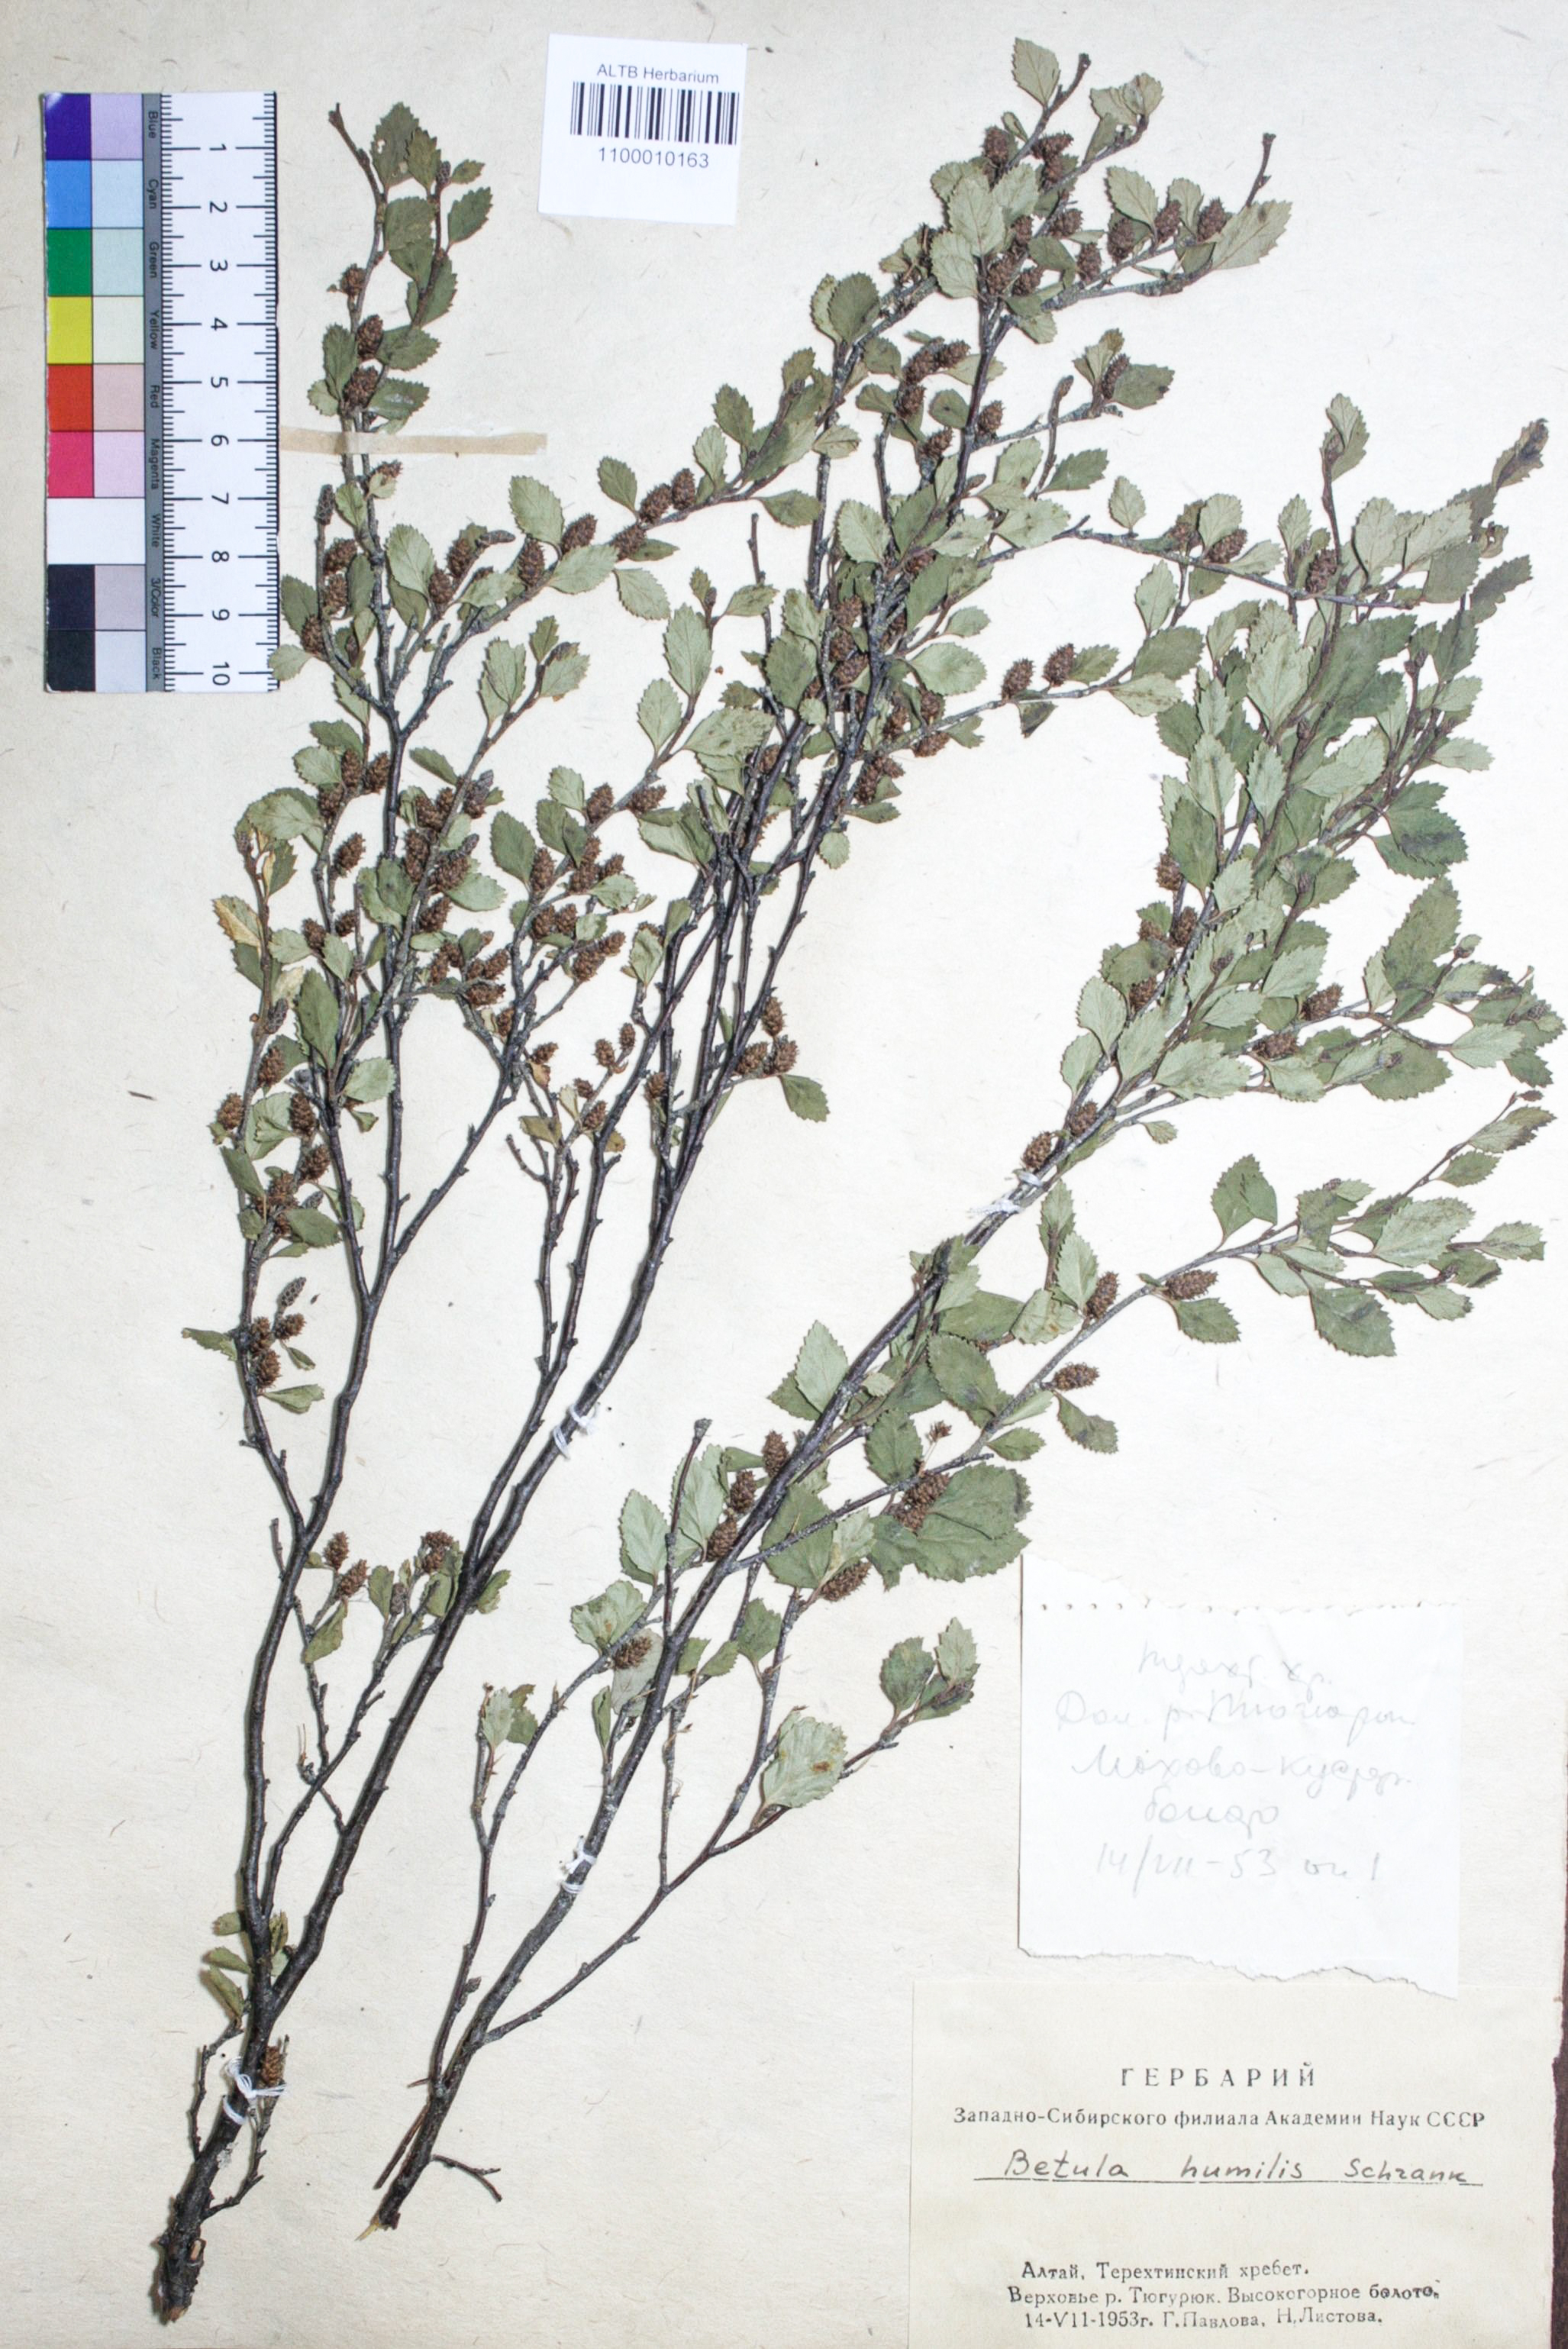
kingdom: Plantae
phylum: Tracheophyta
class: Magnoliopsida
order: Fagales
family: Betulaceae
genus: Betula
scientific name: Betula humilis
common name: Shrubby birch
